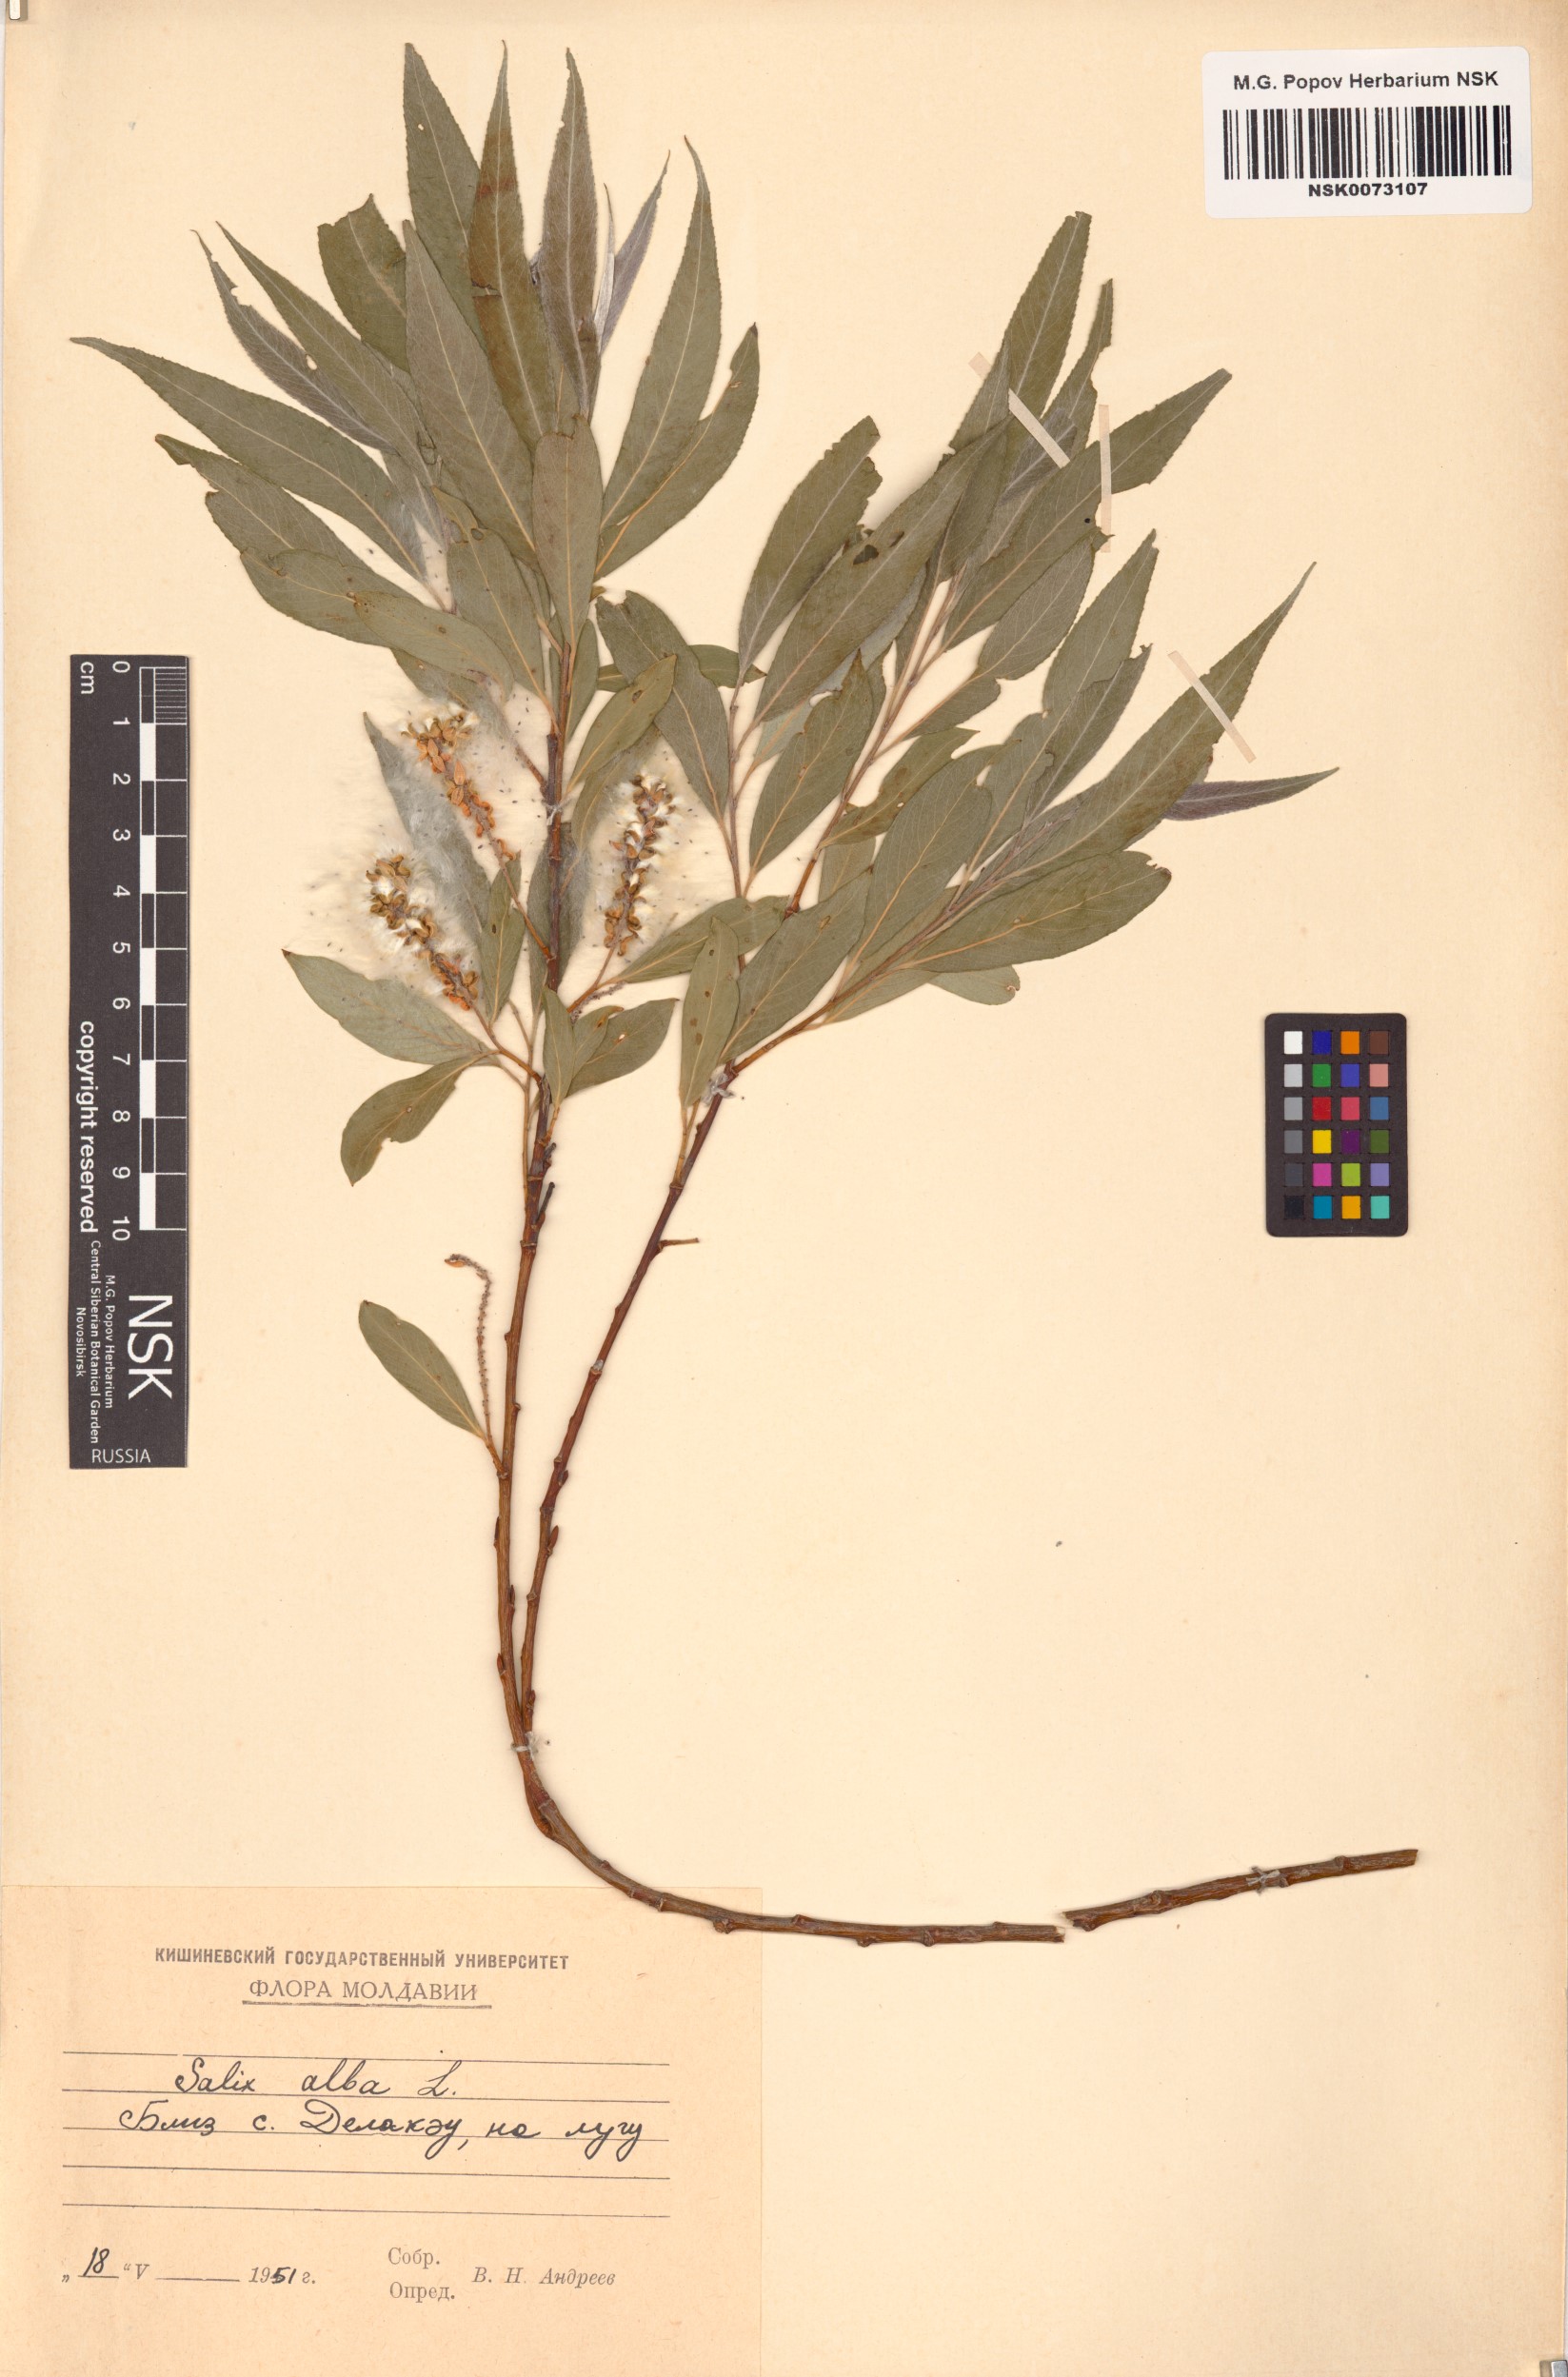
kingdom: Plantae
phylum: Tracheophyta
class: Magnoliopsida
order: Malpighiales
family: Salicaceae
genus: Salix
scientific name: Salix alba
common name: White willow
